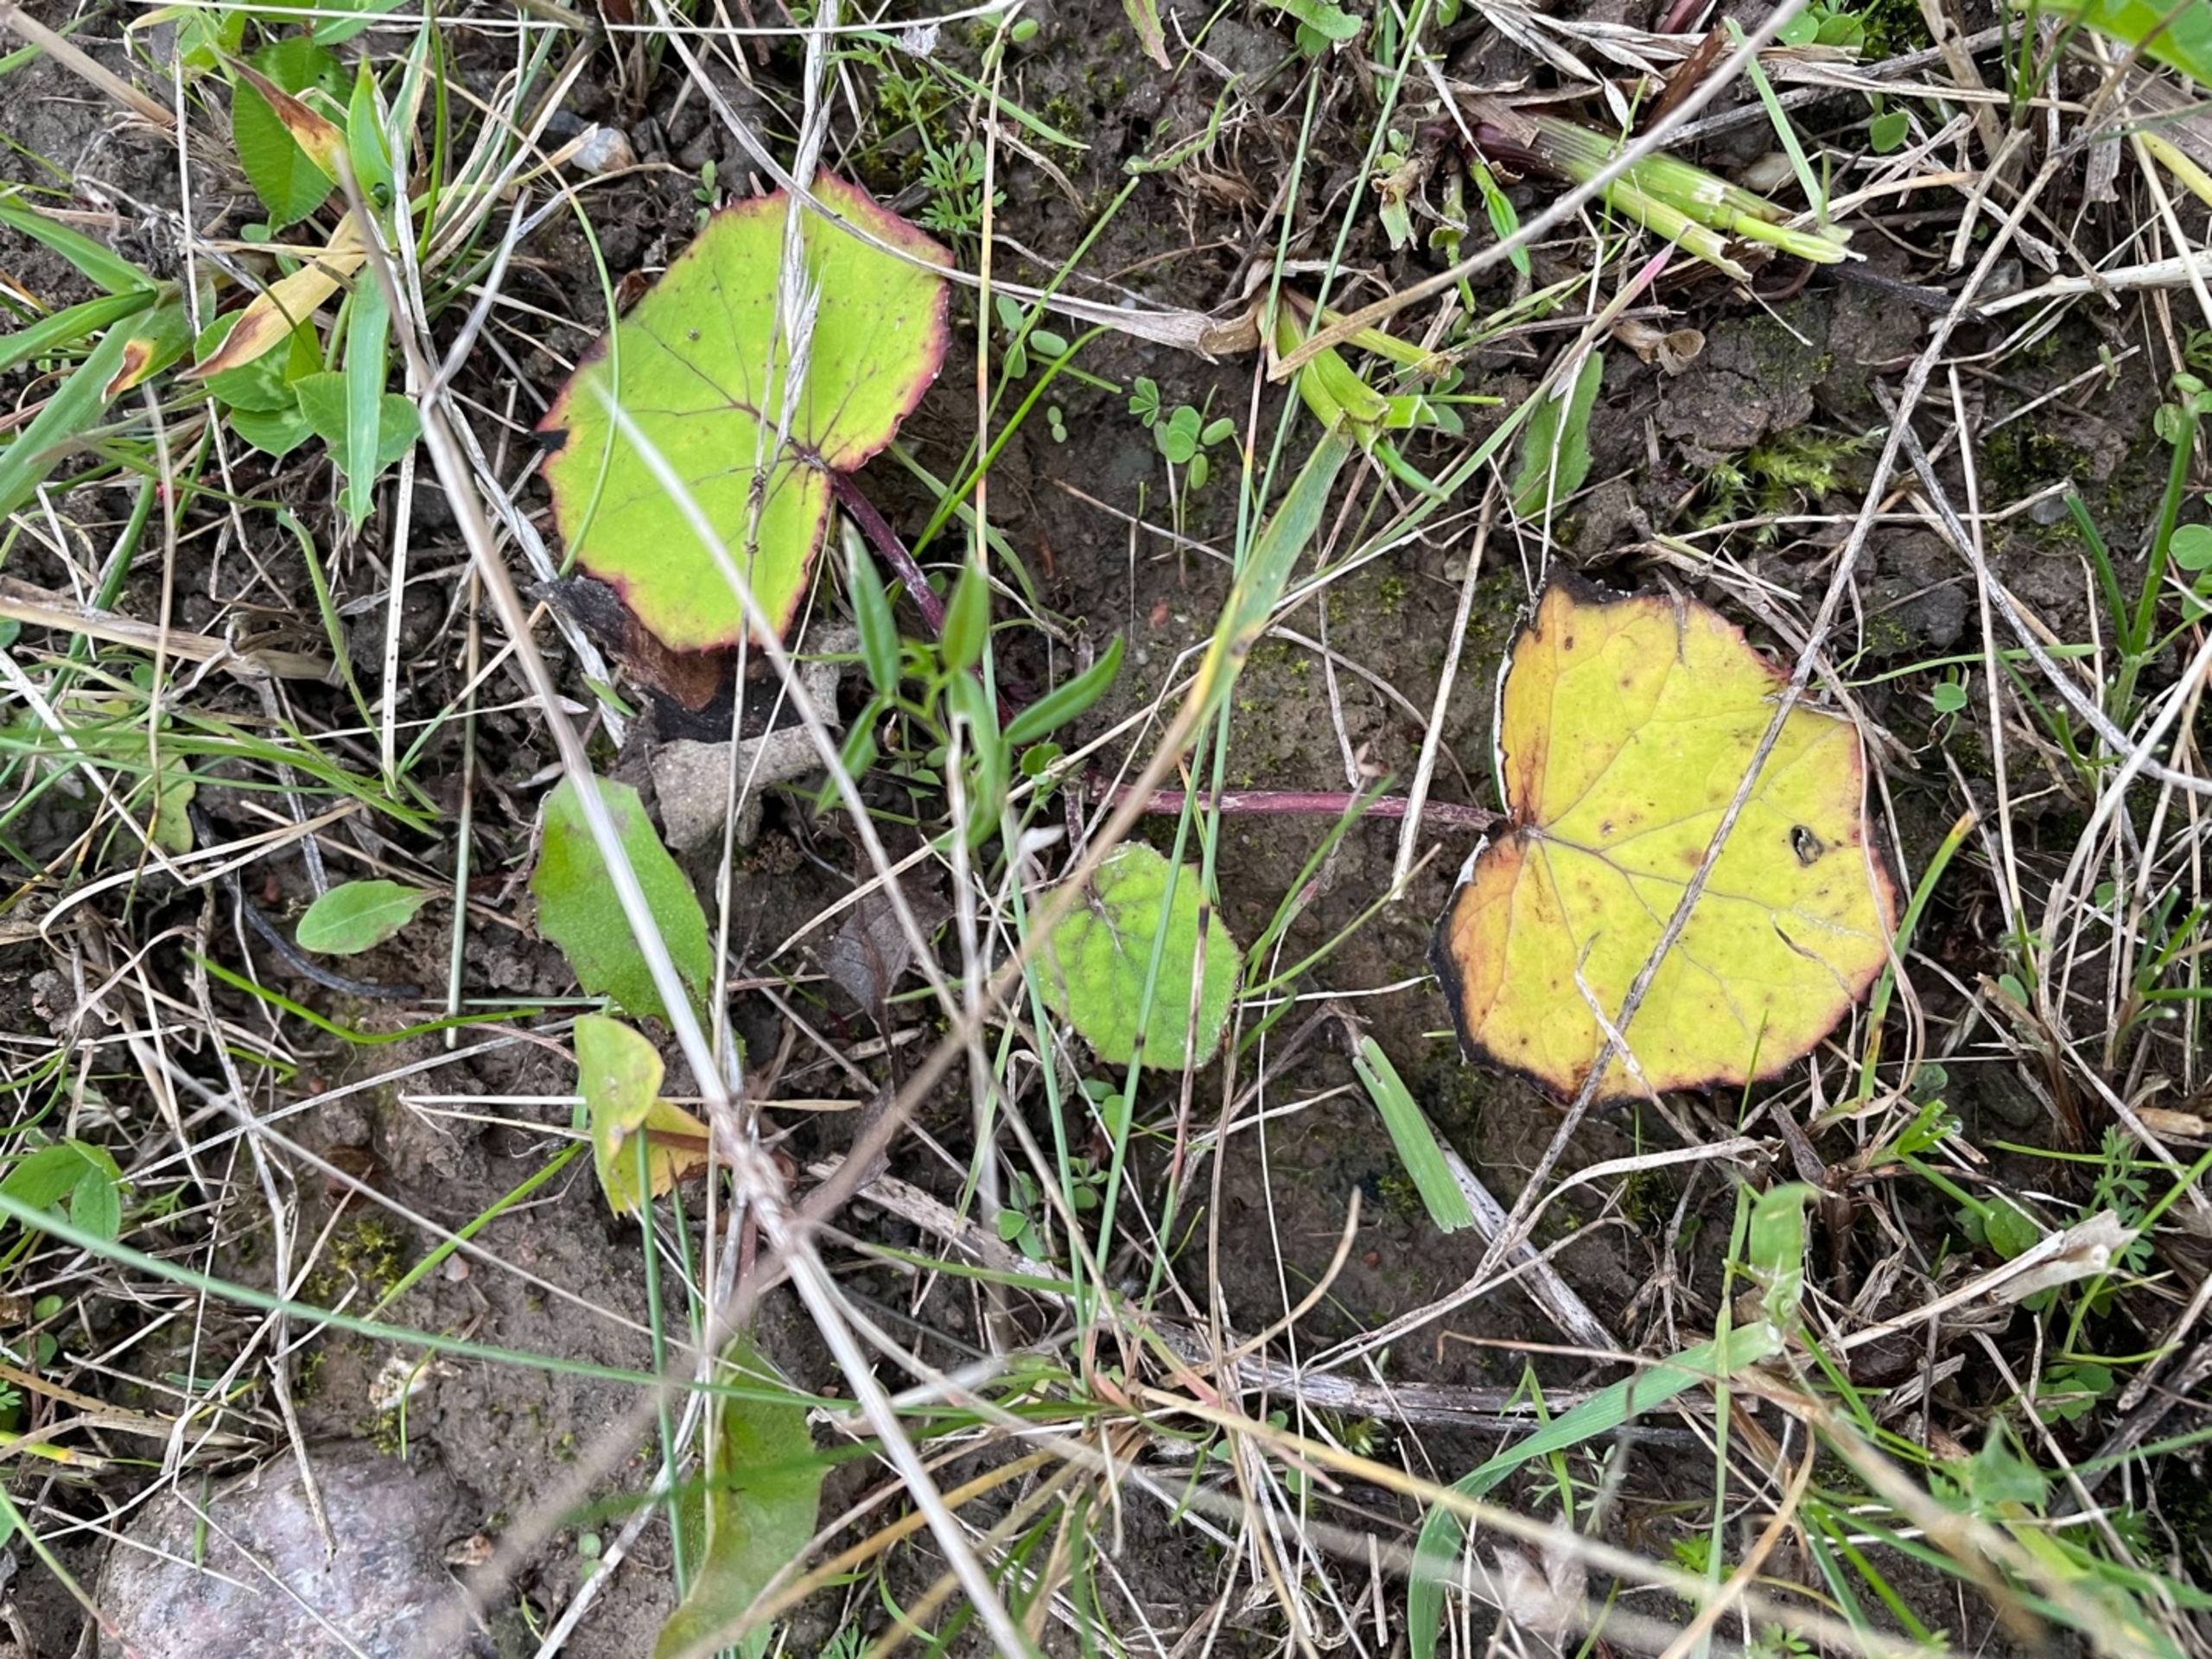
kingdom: Plantae
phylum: Tracheophyta
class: Magnoliopsida
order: Asterales
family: Asteraceae
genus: Tussilago
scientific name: Tussilago farfara
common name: Følfod
